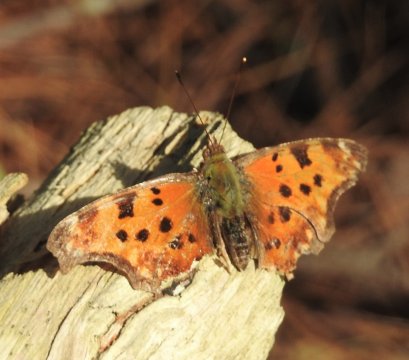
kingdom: Animalia
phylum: Arthropoda
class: Insecta
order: Lepidoptera
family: Nymphalidae
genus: Polygonia
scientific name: Polygonia comma
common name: Eastern Comma
